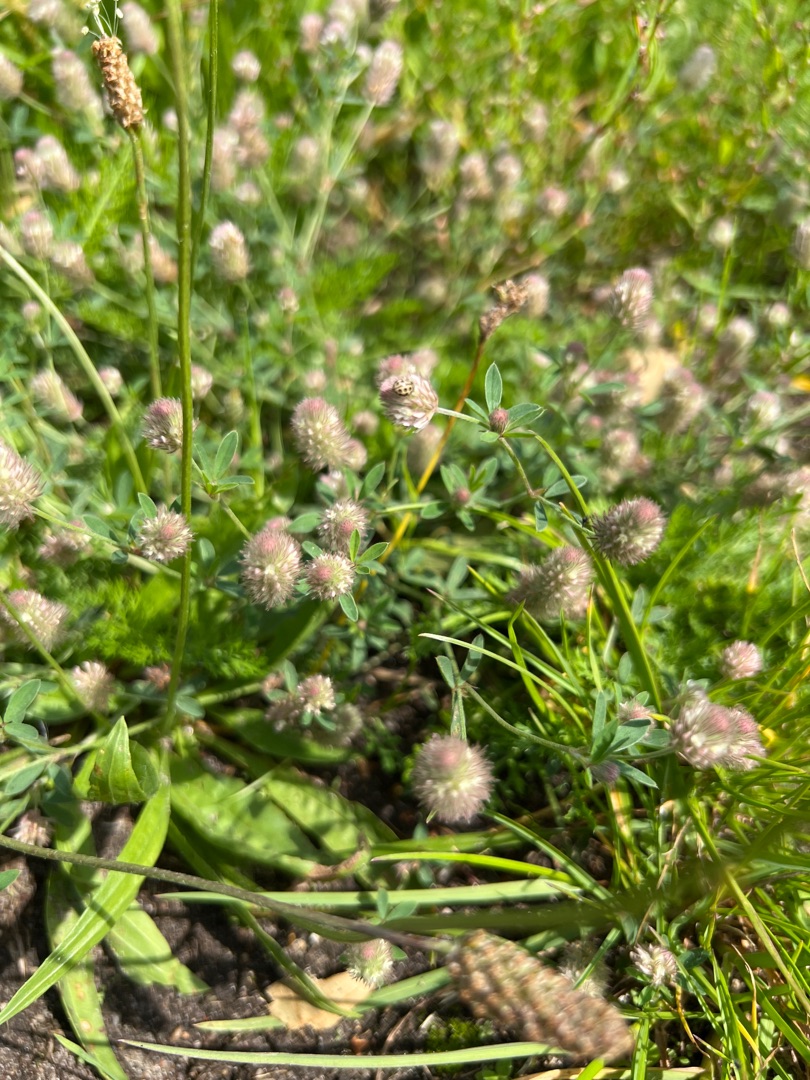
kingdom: Plantae
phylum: Tracheophyta
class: Magnoliopsida
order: Fabales
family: Fabaceae
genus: Trifolium
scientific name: Trifolium arvense
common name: Hare-kløver
